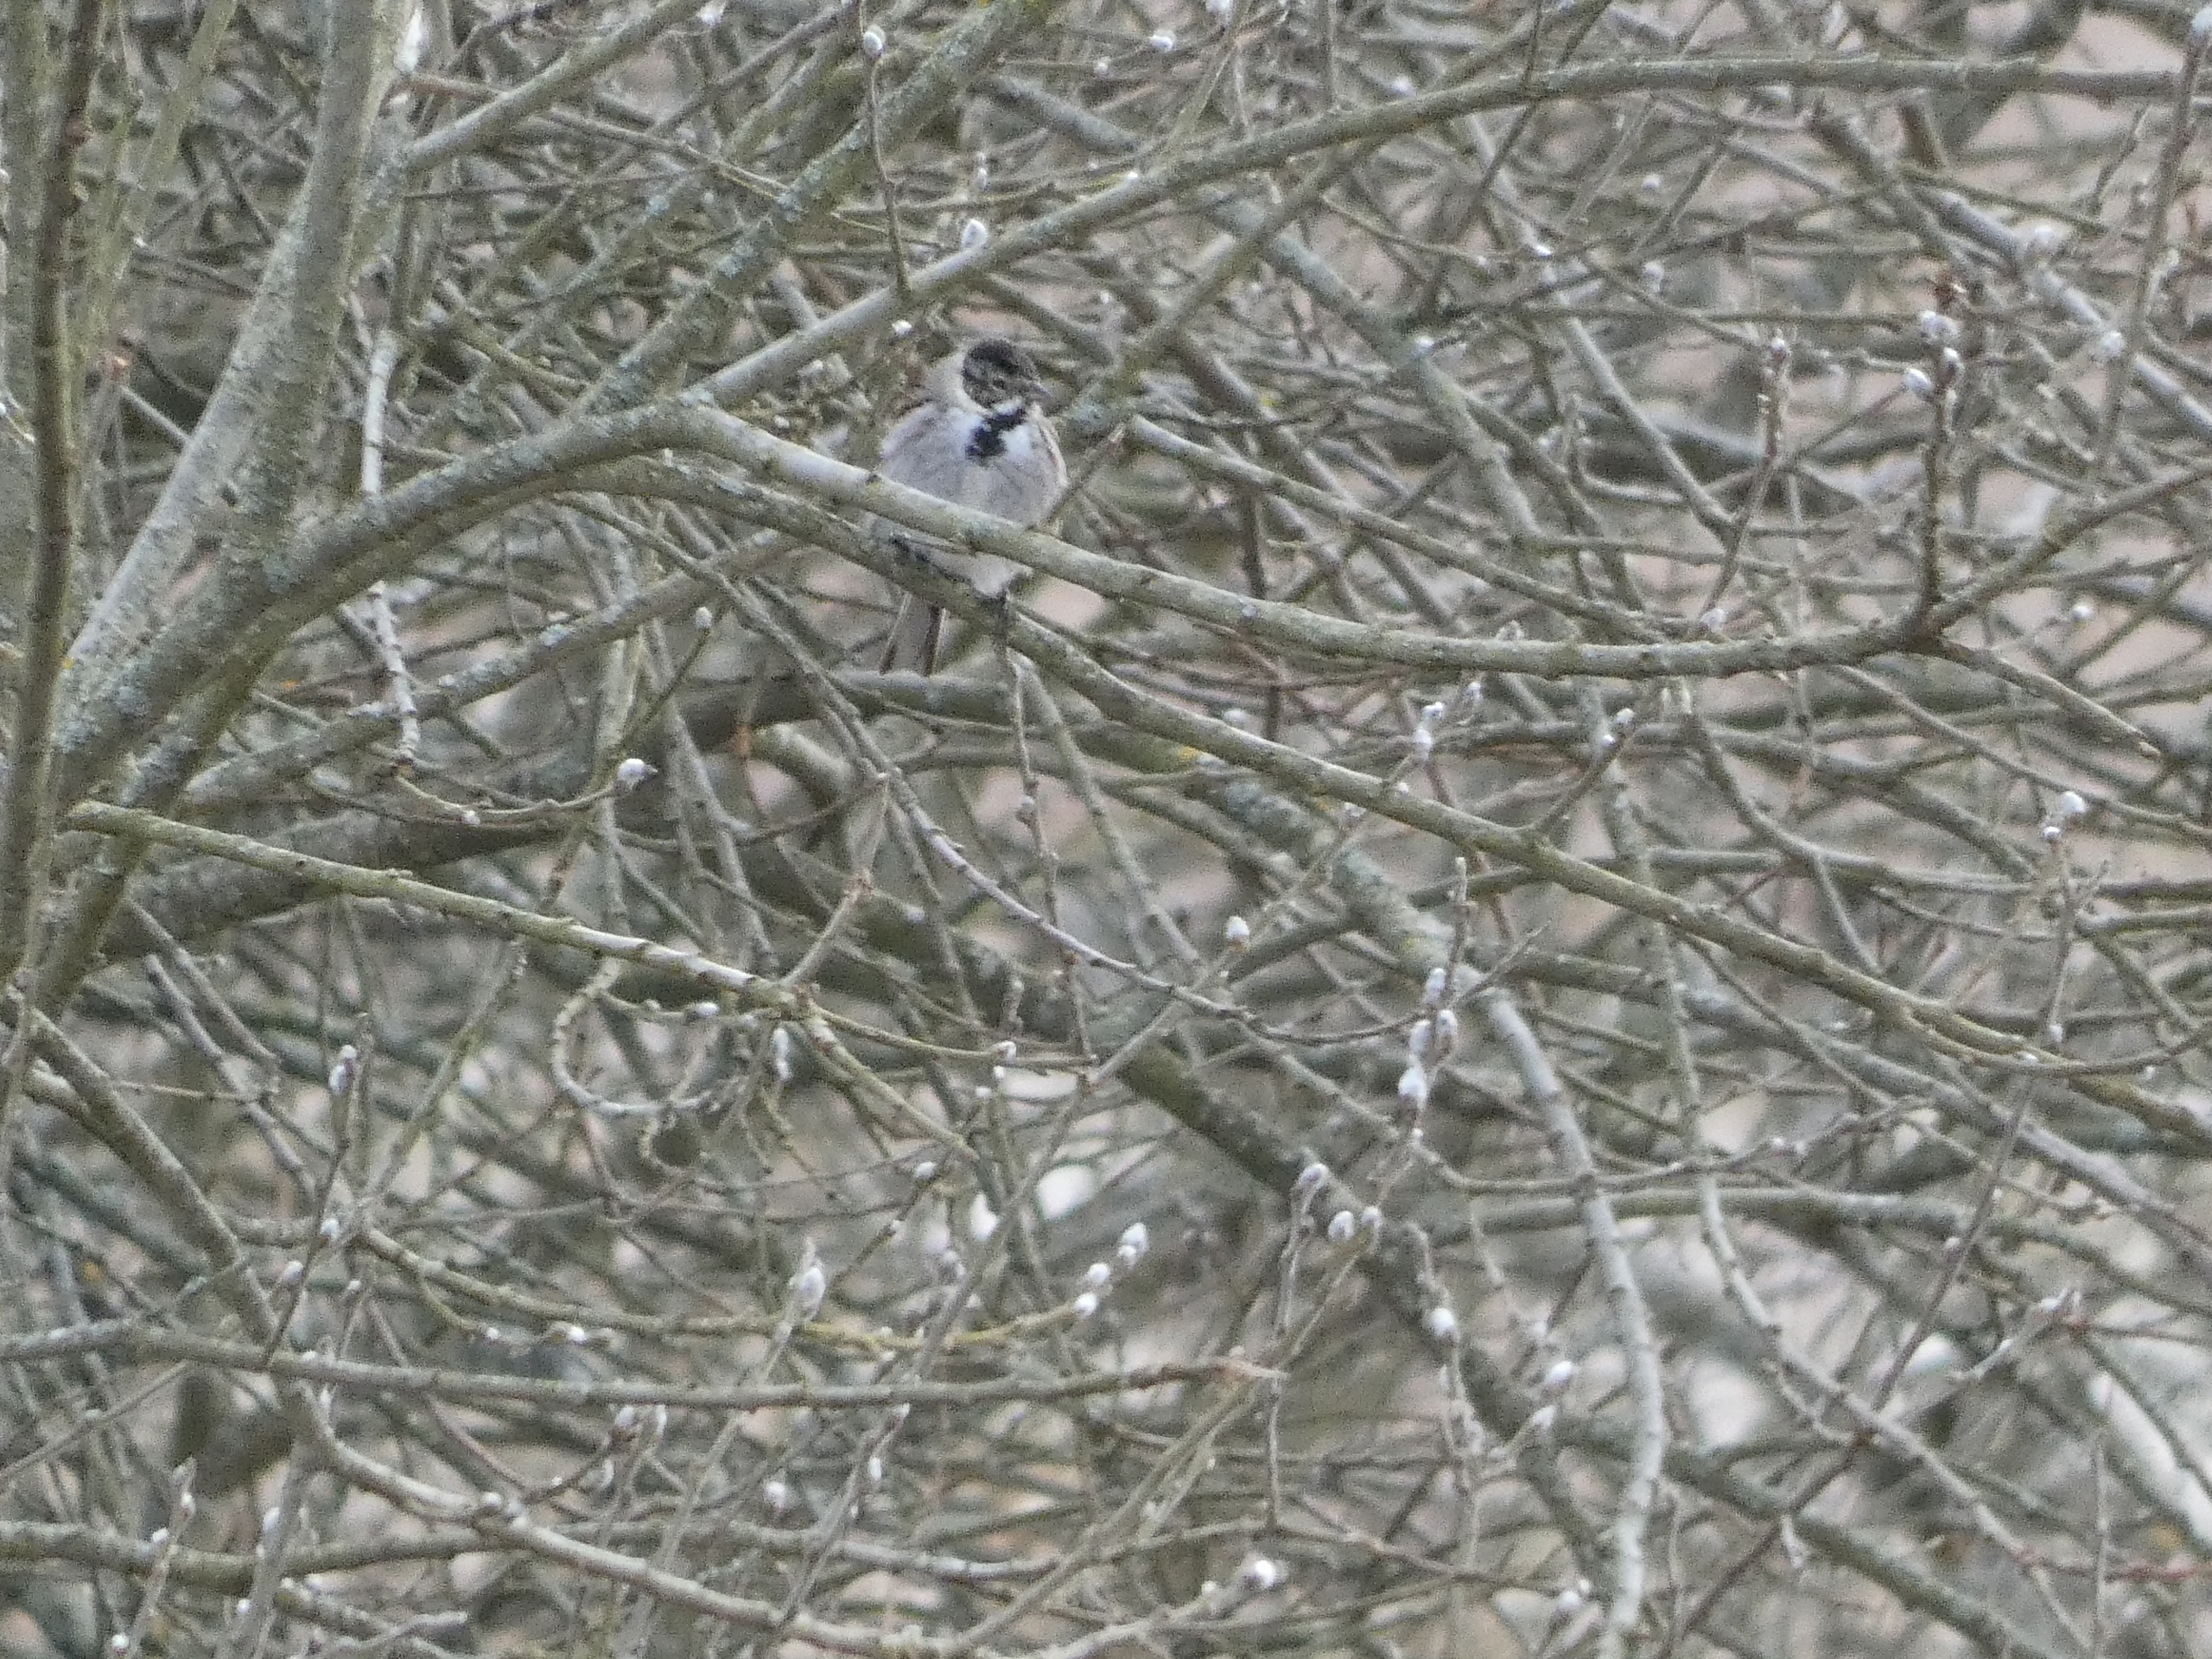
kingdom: Animalia
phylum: Chordata
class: Aves
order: Passeriformes
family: Emberizidae
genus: Emberiza
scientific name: Emberiza schoeniclus
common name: Rørspurv
